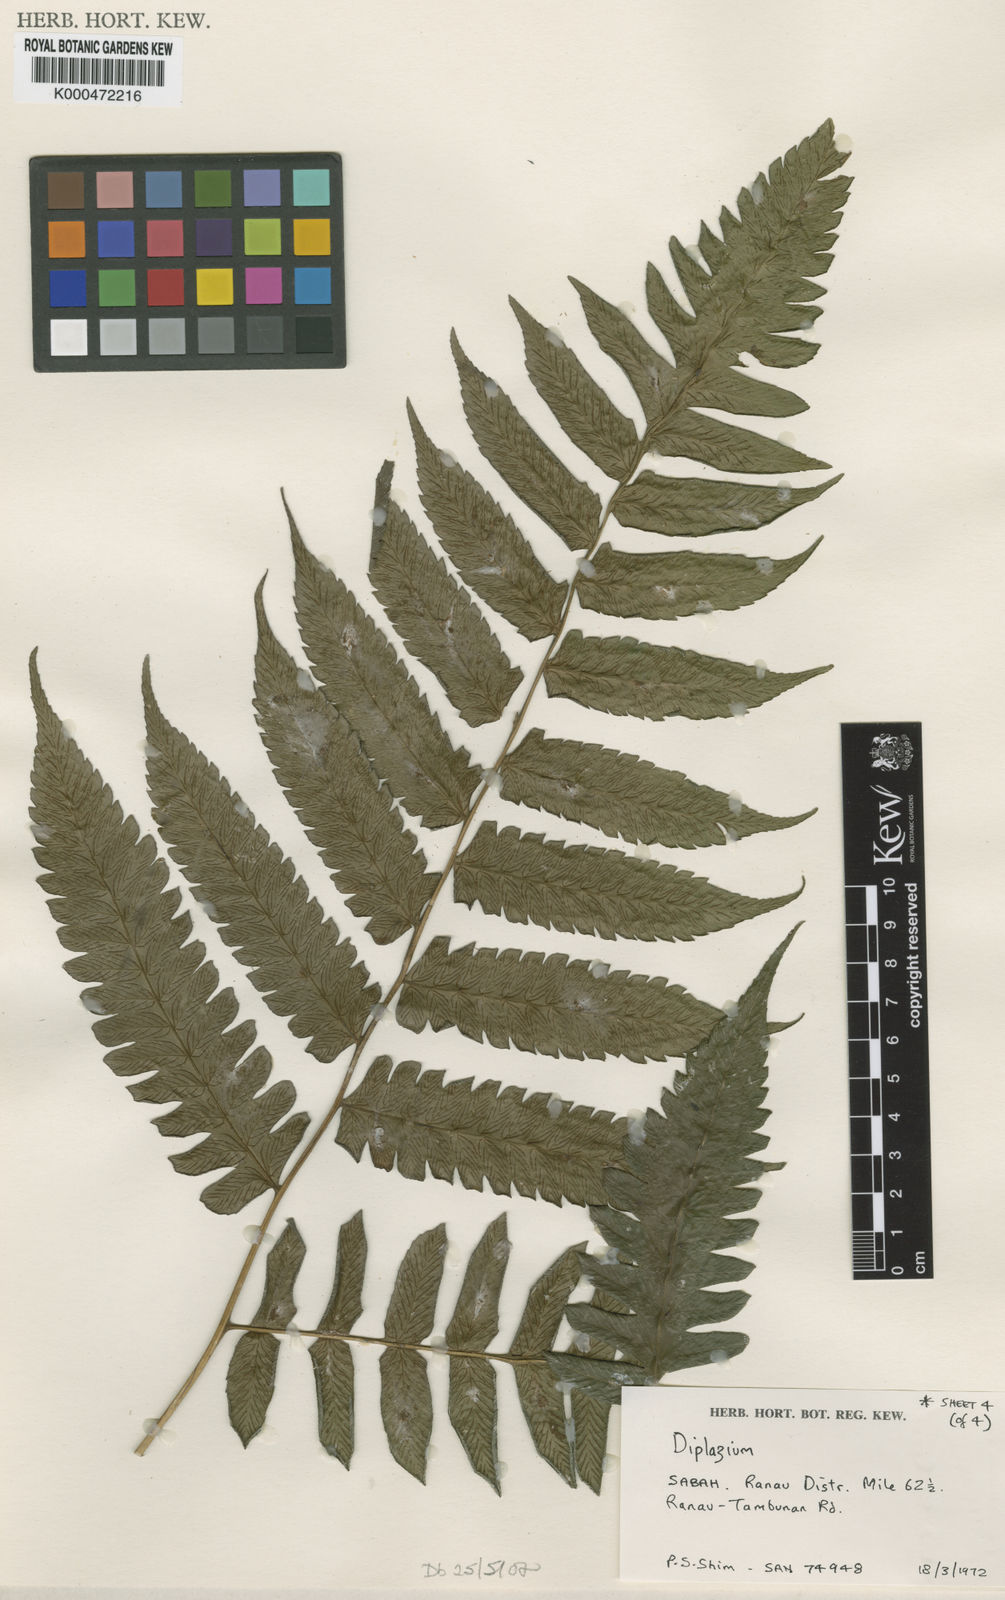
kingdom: Plantae
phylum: Tracheophyta
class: Polypodiopsida
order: Polypodiales
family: Athyriaceae
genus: Diplazium
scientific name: Diplazium dilatatum
